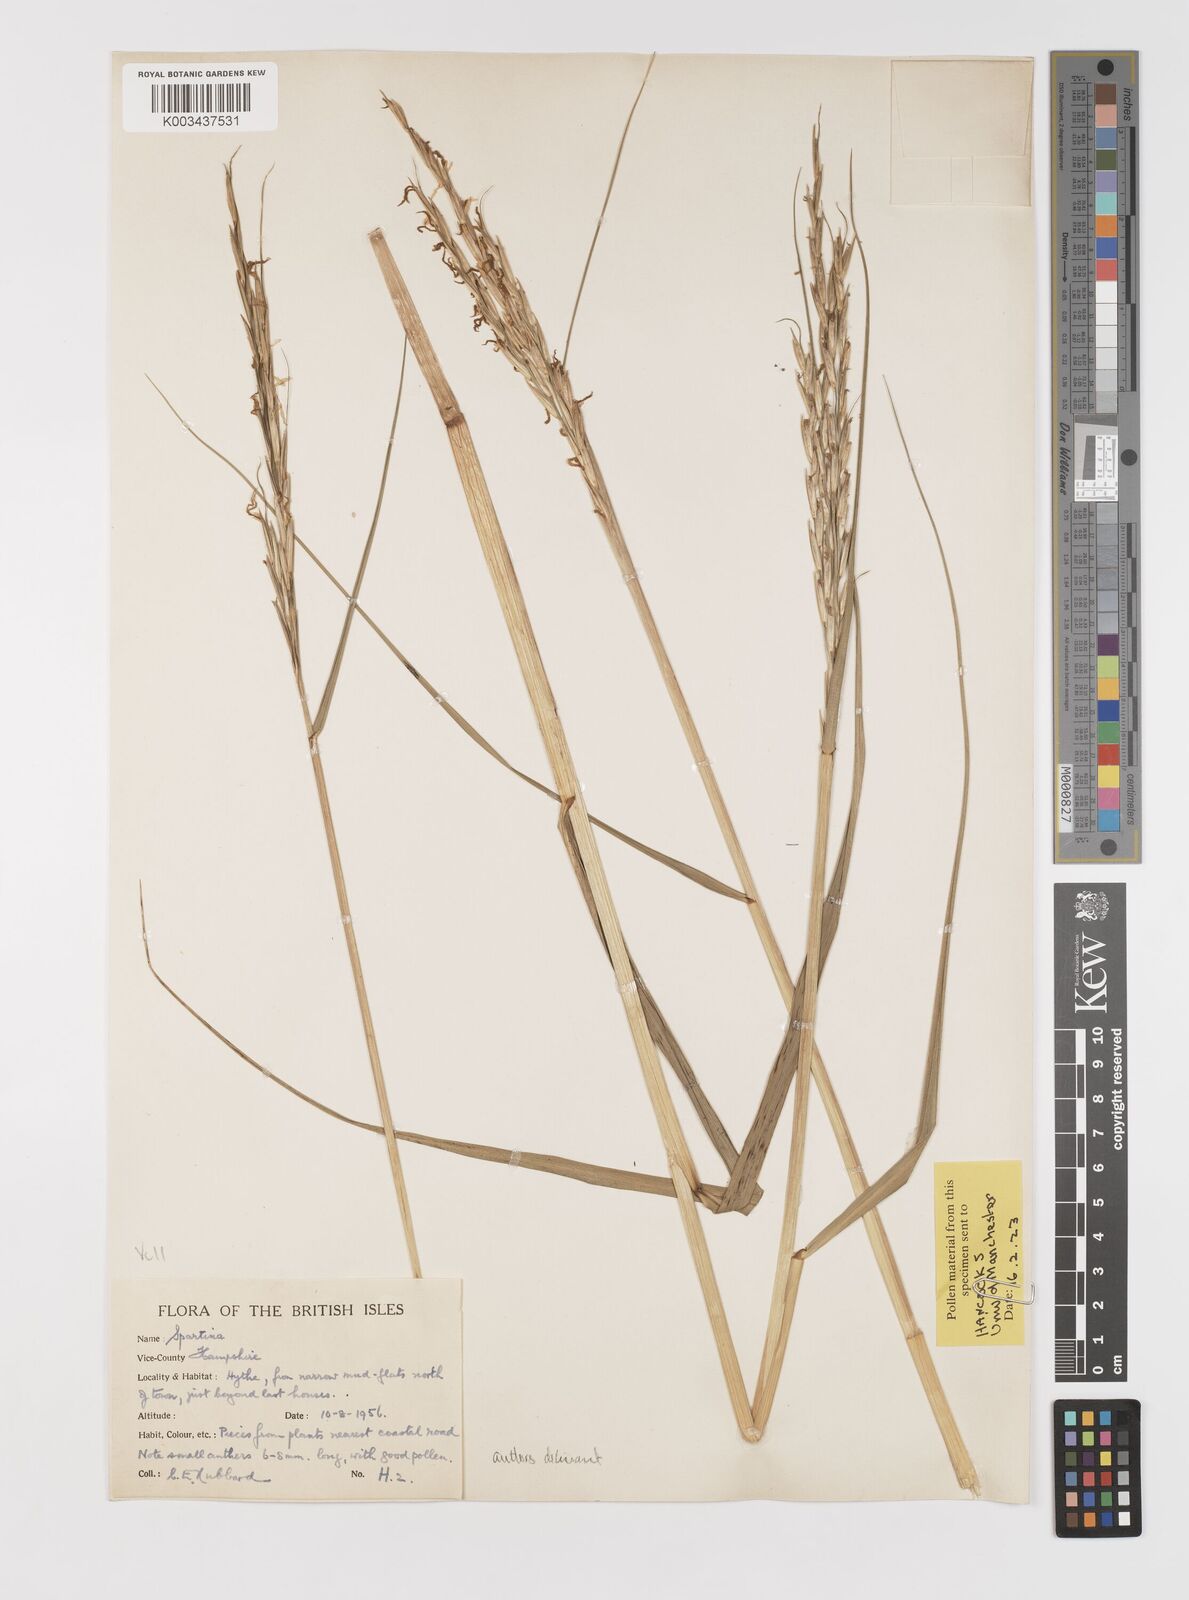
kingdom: Plantae
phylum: Tracheophyta
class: Liliopsida
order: Poales
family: Poaceae
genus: Sporobolus
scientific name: Sporobolus anglicus
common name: English cordgrass
